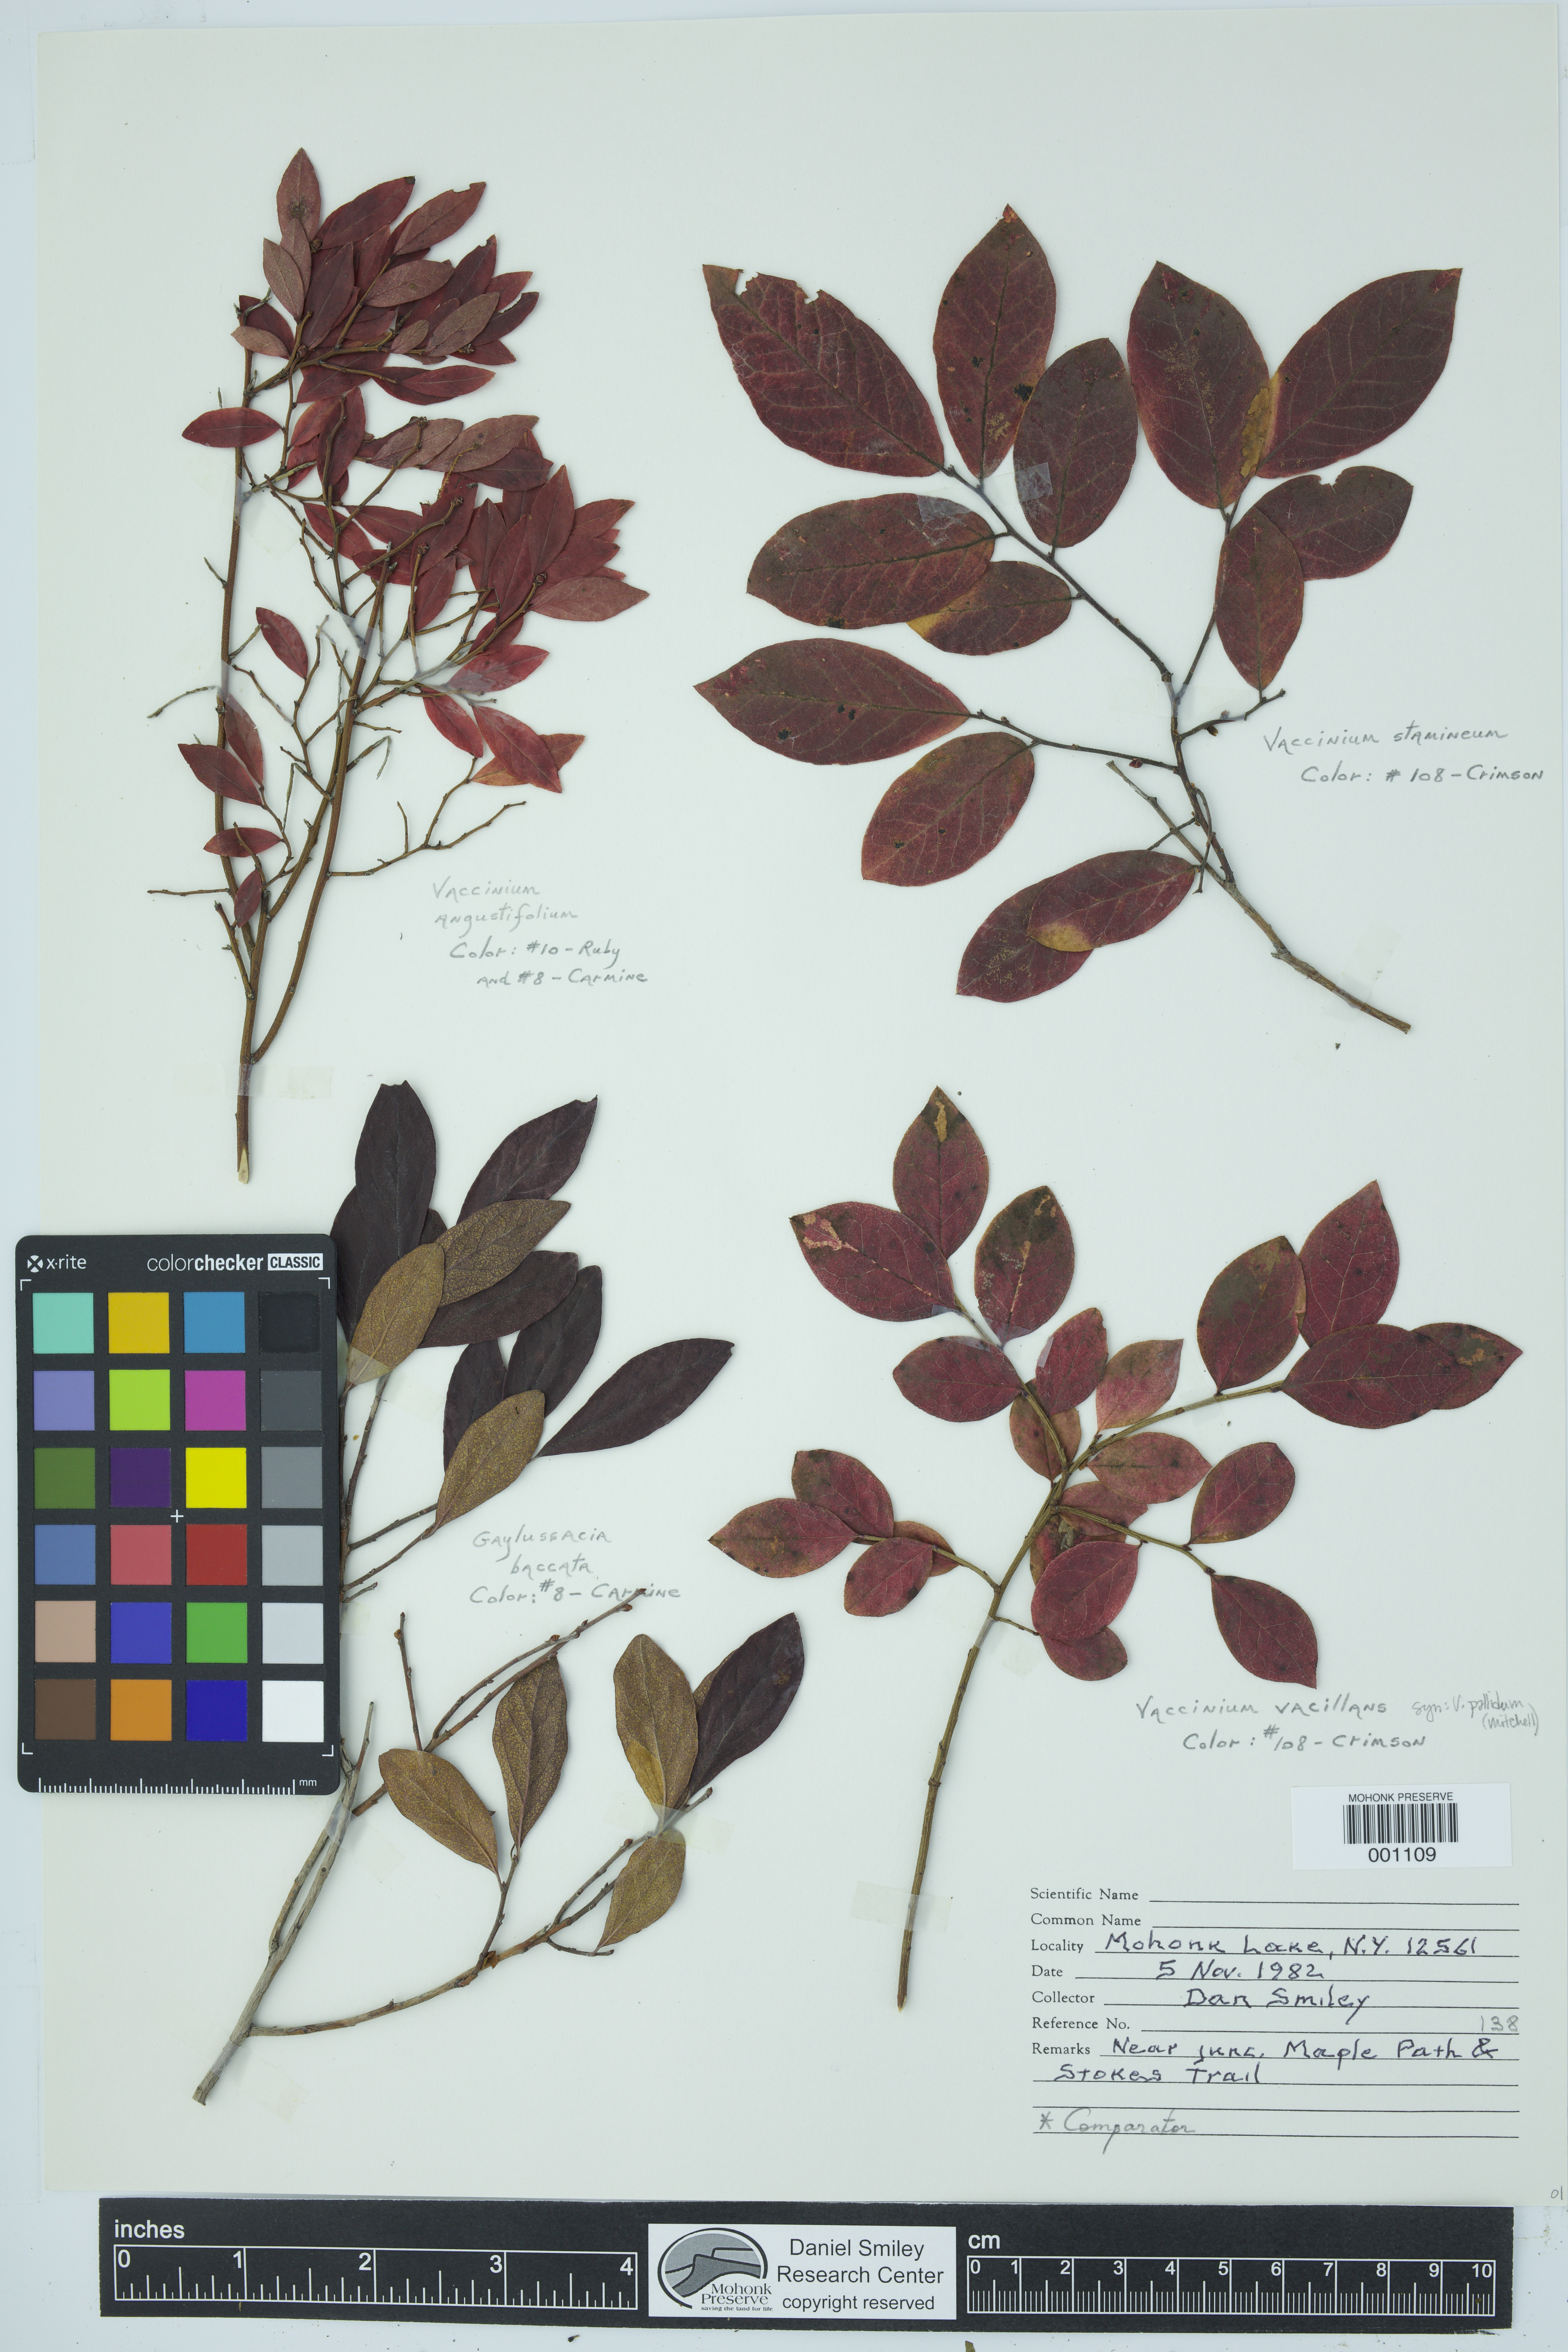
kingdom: Plantae
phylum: Tracheophyta
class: Magnoliopsida
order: Ericales
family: Ericaceae
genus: Vaccinium
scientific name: Vaccinium pallidum
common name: Blue ridge blueberry
